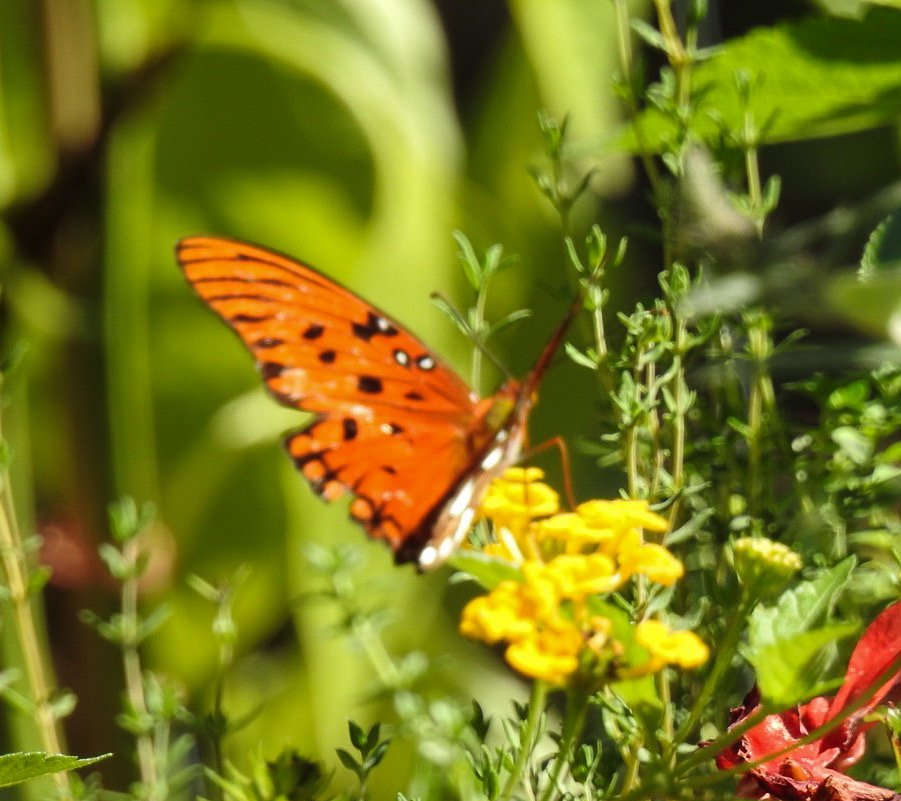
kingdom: Animalia
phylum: Arthropoda
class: Insecta
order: Lepidoptera
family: Nymphalidae
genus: Dione
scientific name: Dione vanillae
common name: Gulf Fritillary
